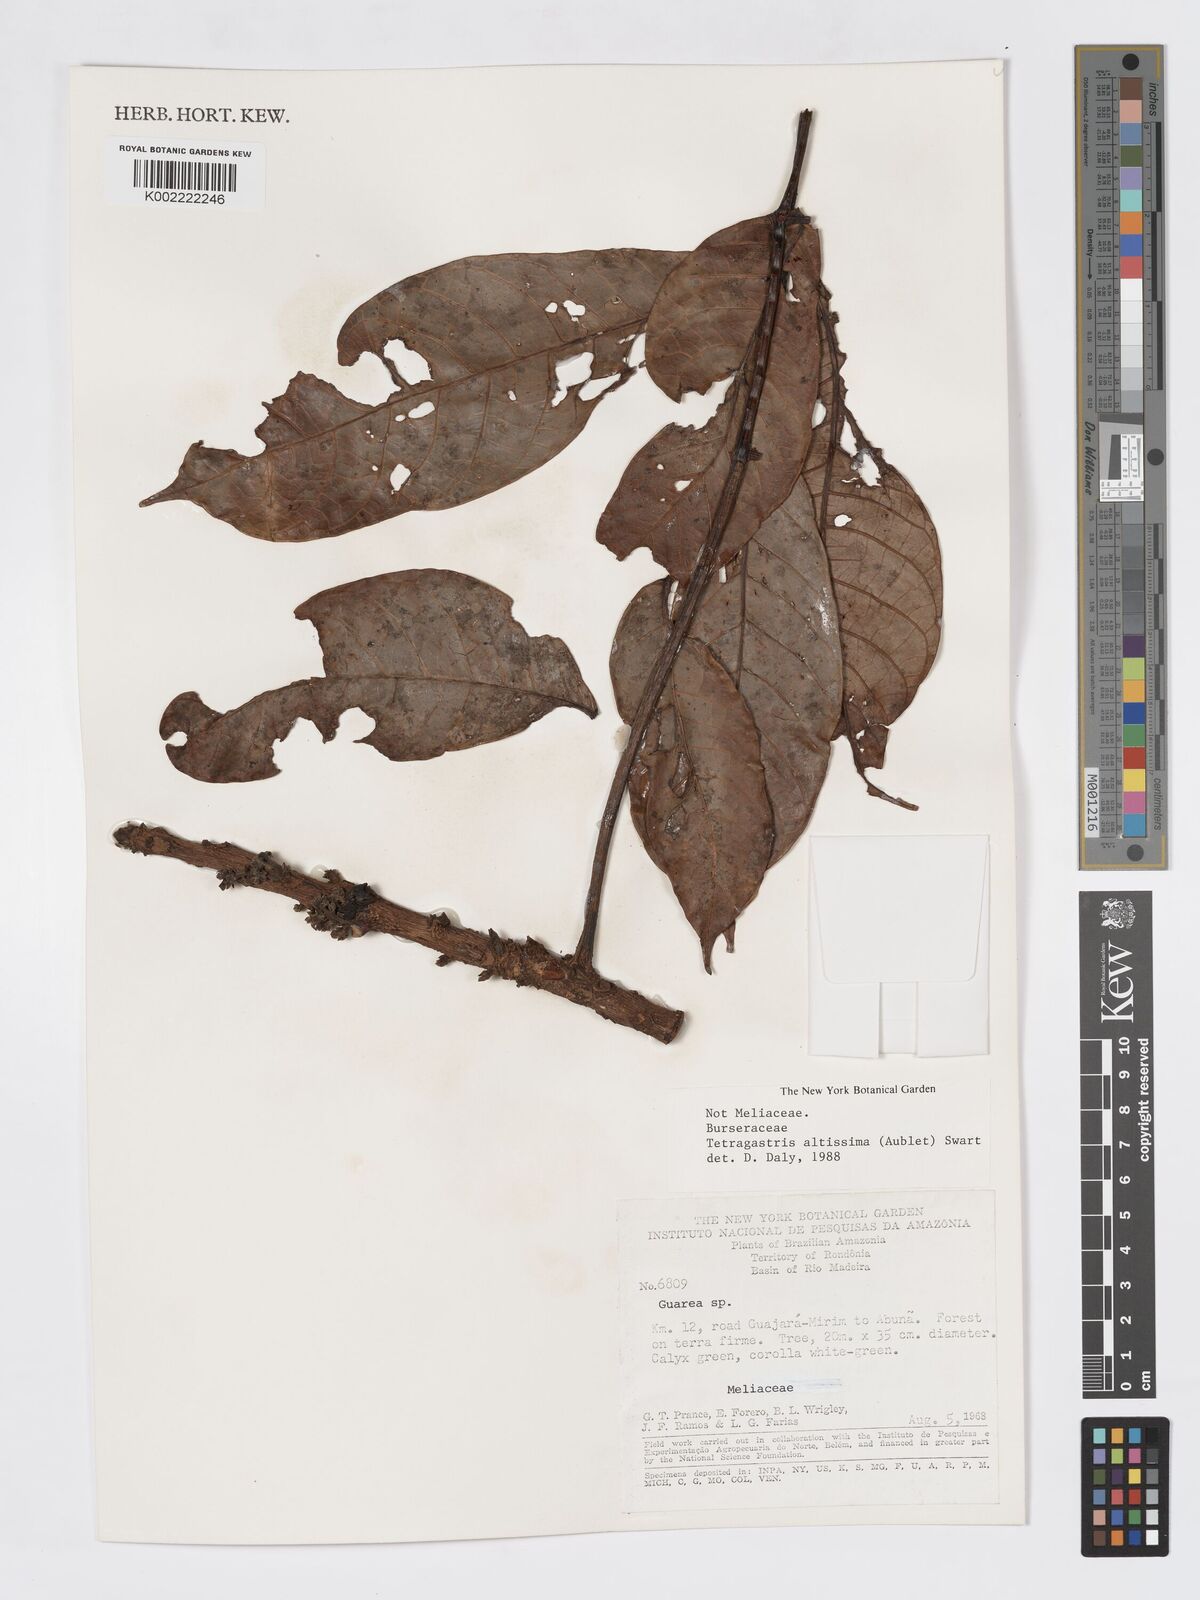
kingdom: Plantae
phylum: Tracheophyta
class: Magnoliopsida
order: Sapindales
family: Burseraceae
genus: Tetragastris
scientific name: Tetragastris altissima
